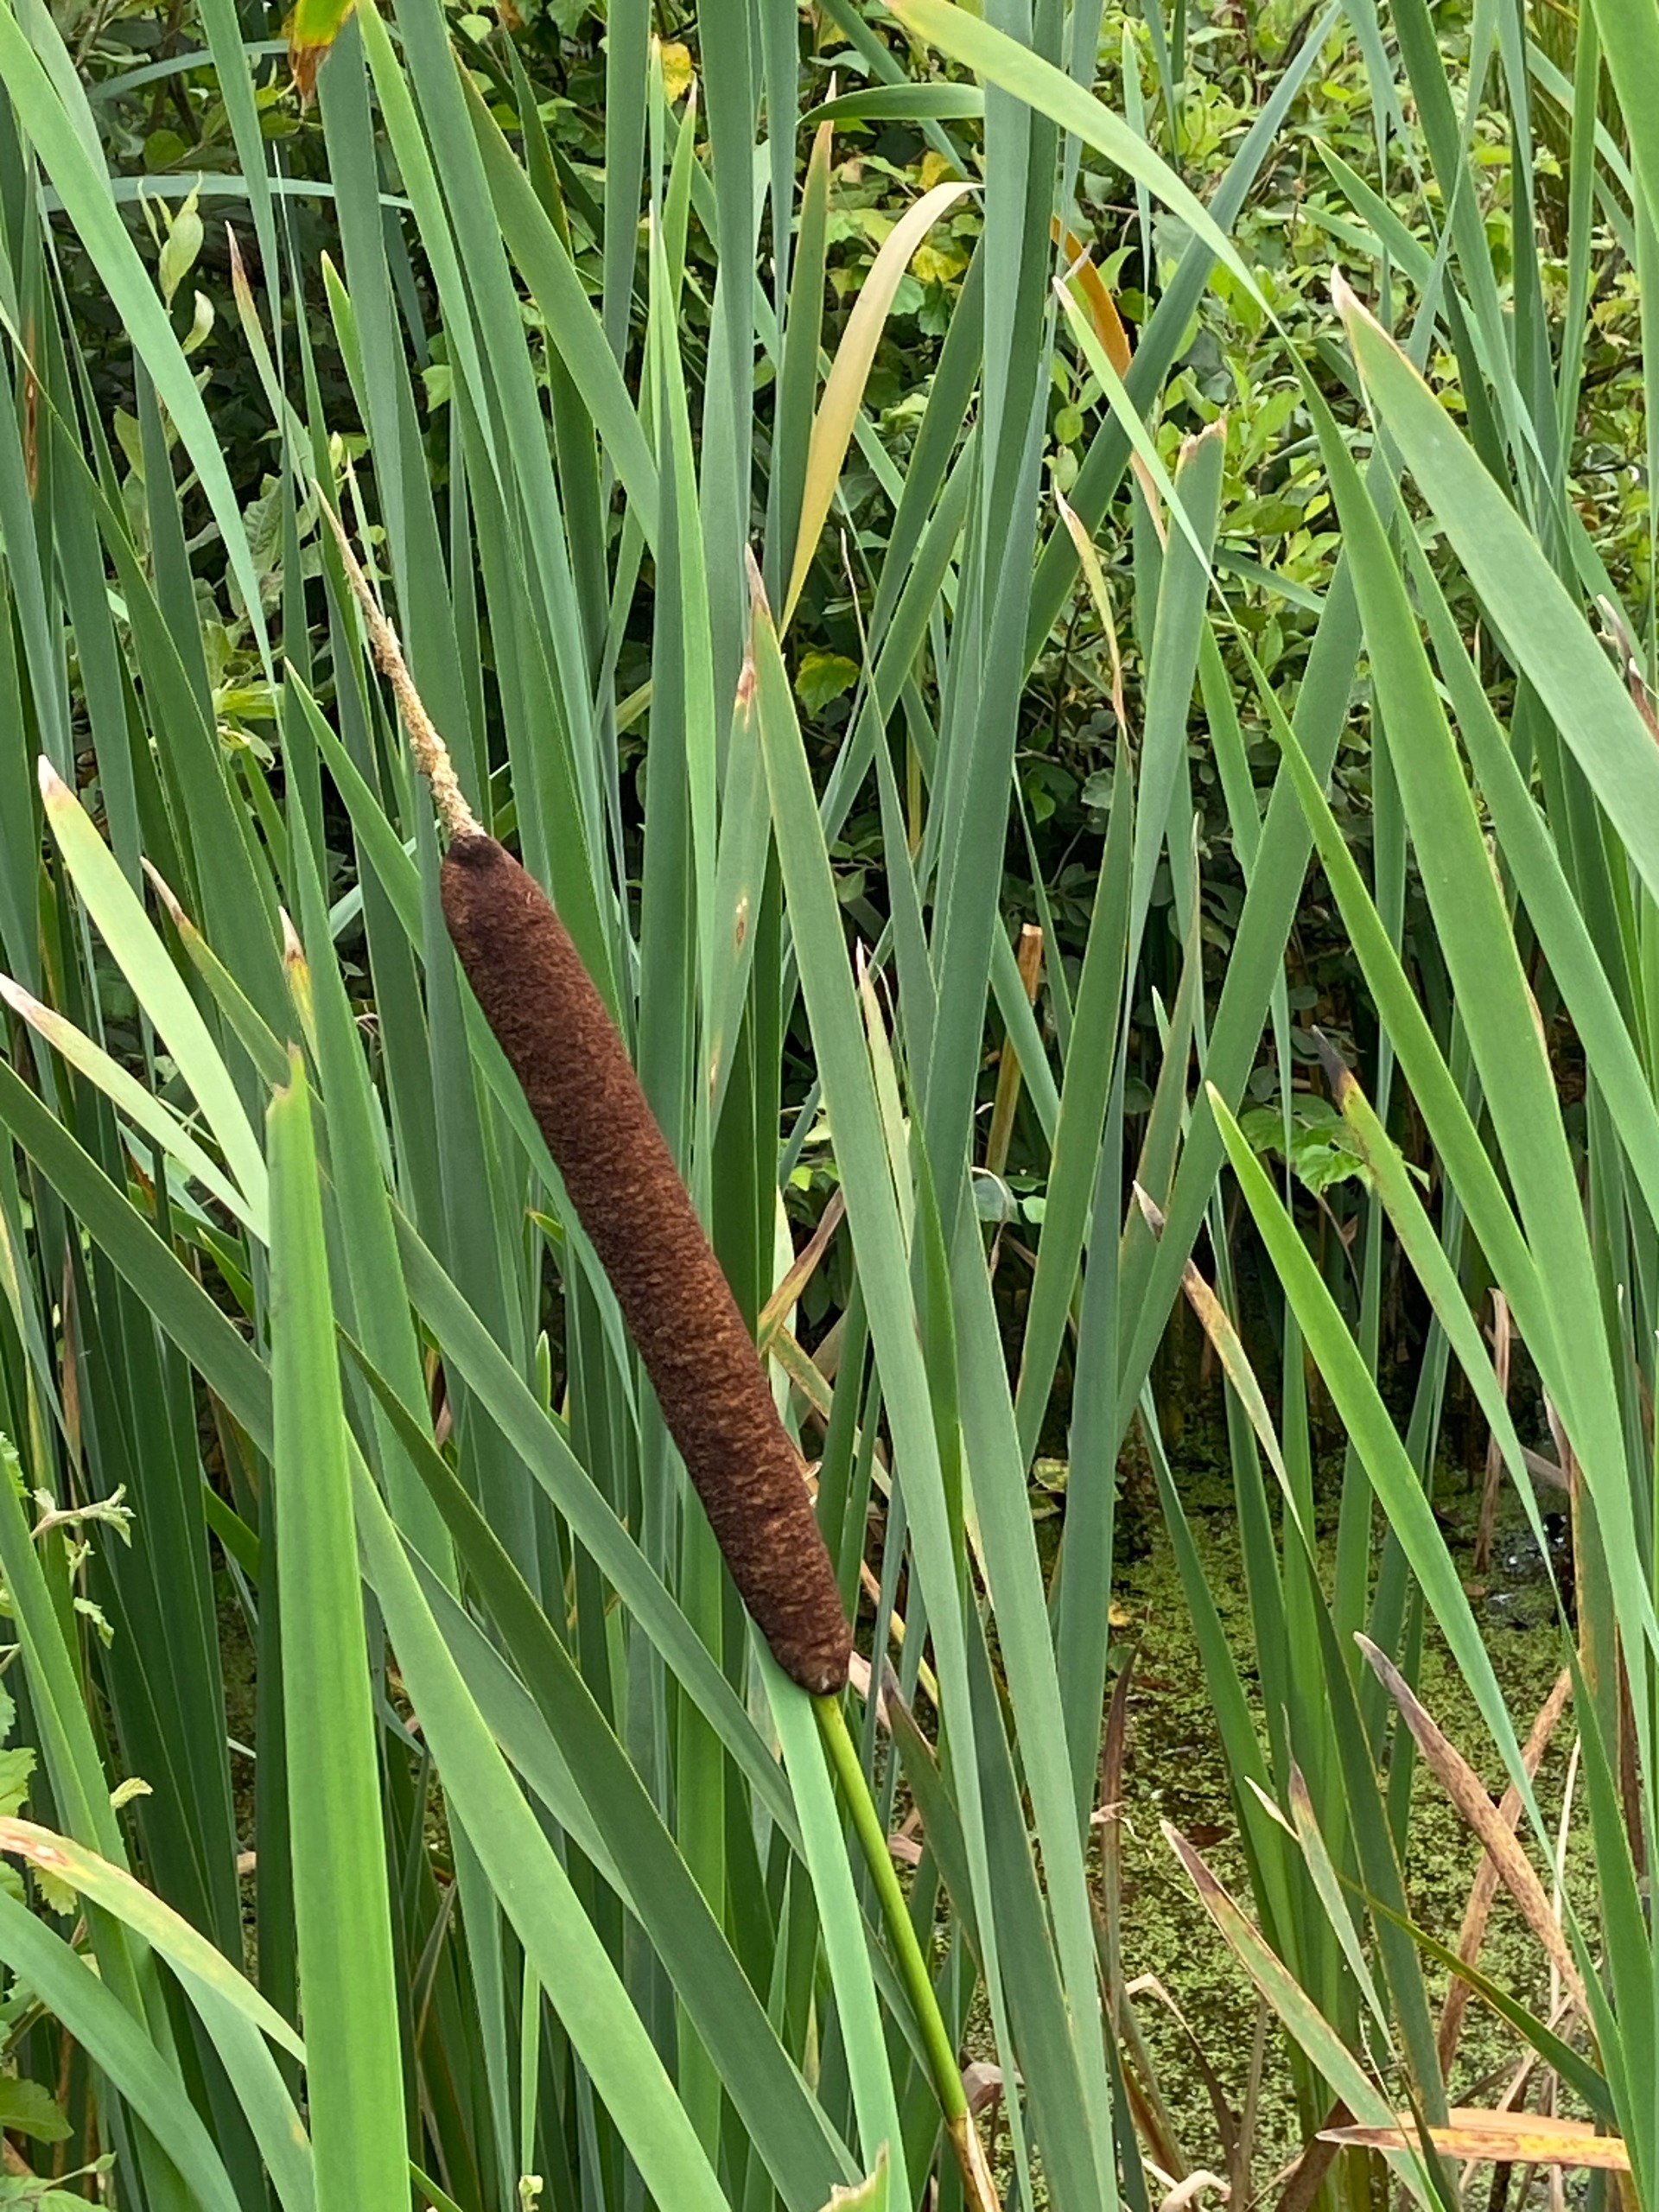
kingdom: Plantae
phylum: Tracheophyta
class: Liliopsida
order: Poales
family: Typhaceae
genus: Typha
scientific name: Typha latifolia
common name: Bredbladet dunhammer
